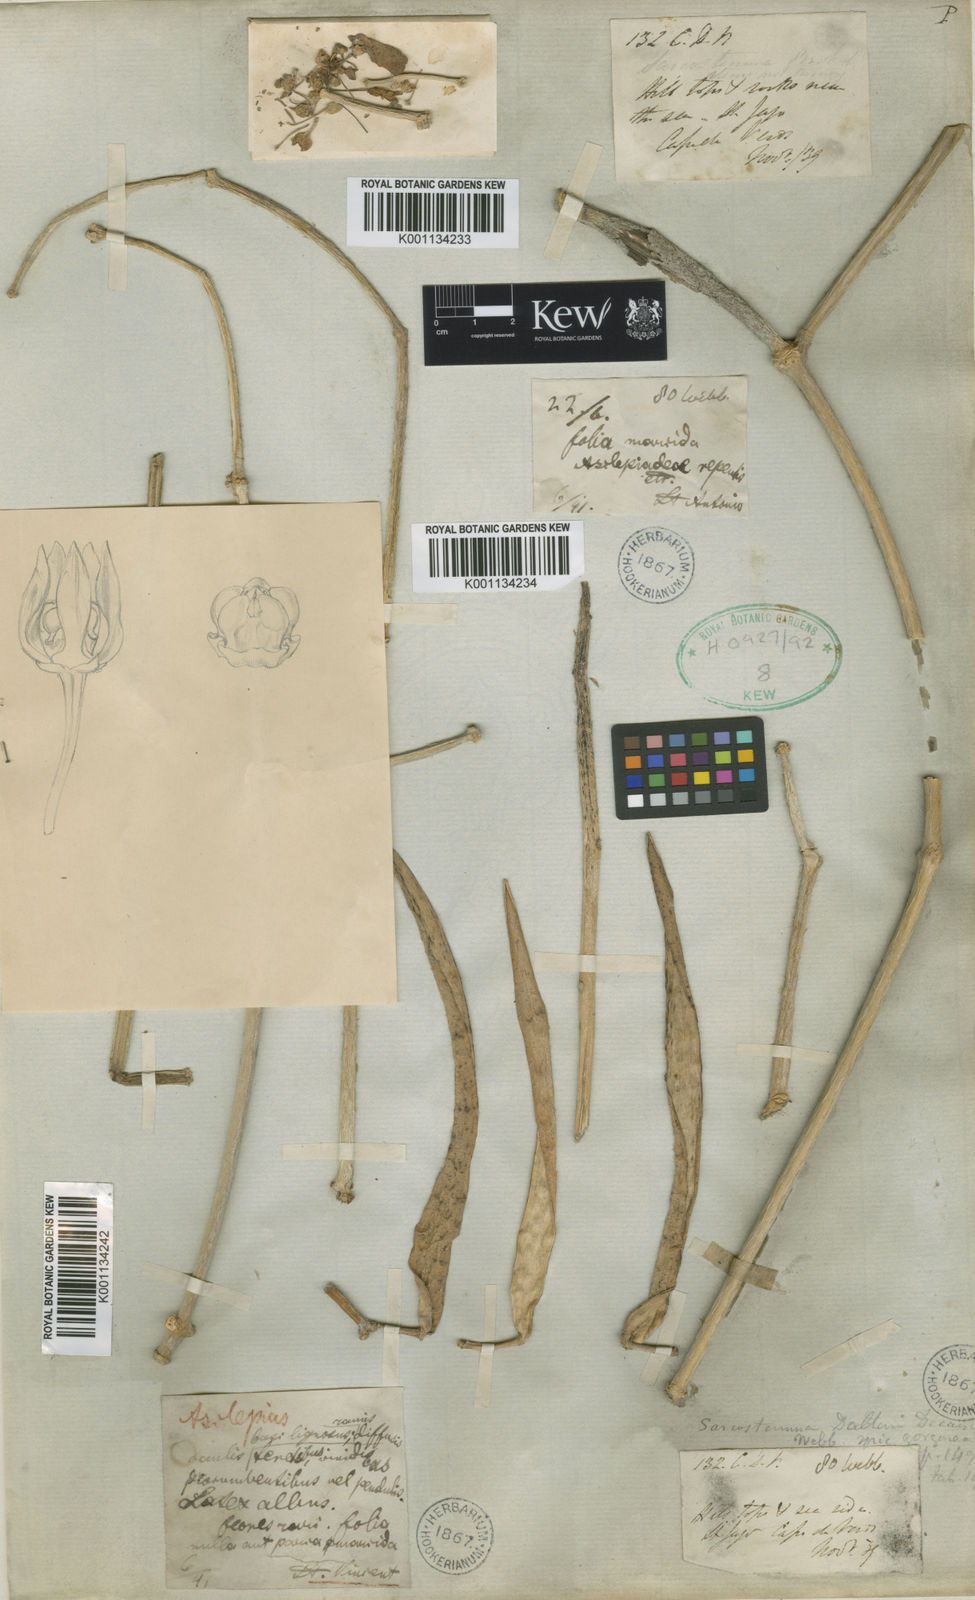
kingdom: Plantae
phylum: Tracheophyta
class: Magnoliopsida
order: Gentianales
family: Apocynaceae
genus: Cynanchum
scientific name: Cynanchum daltonii
